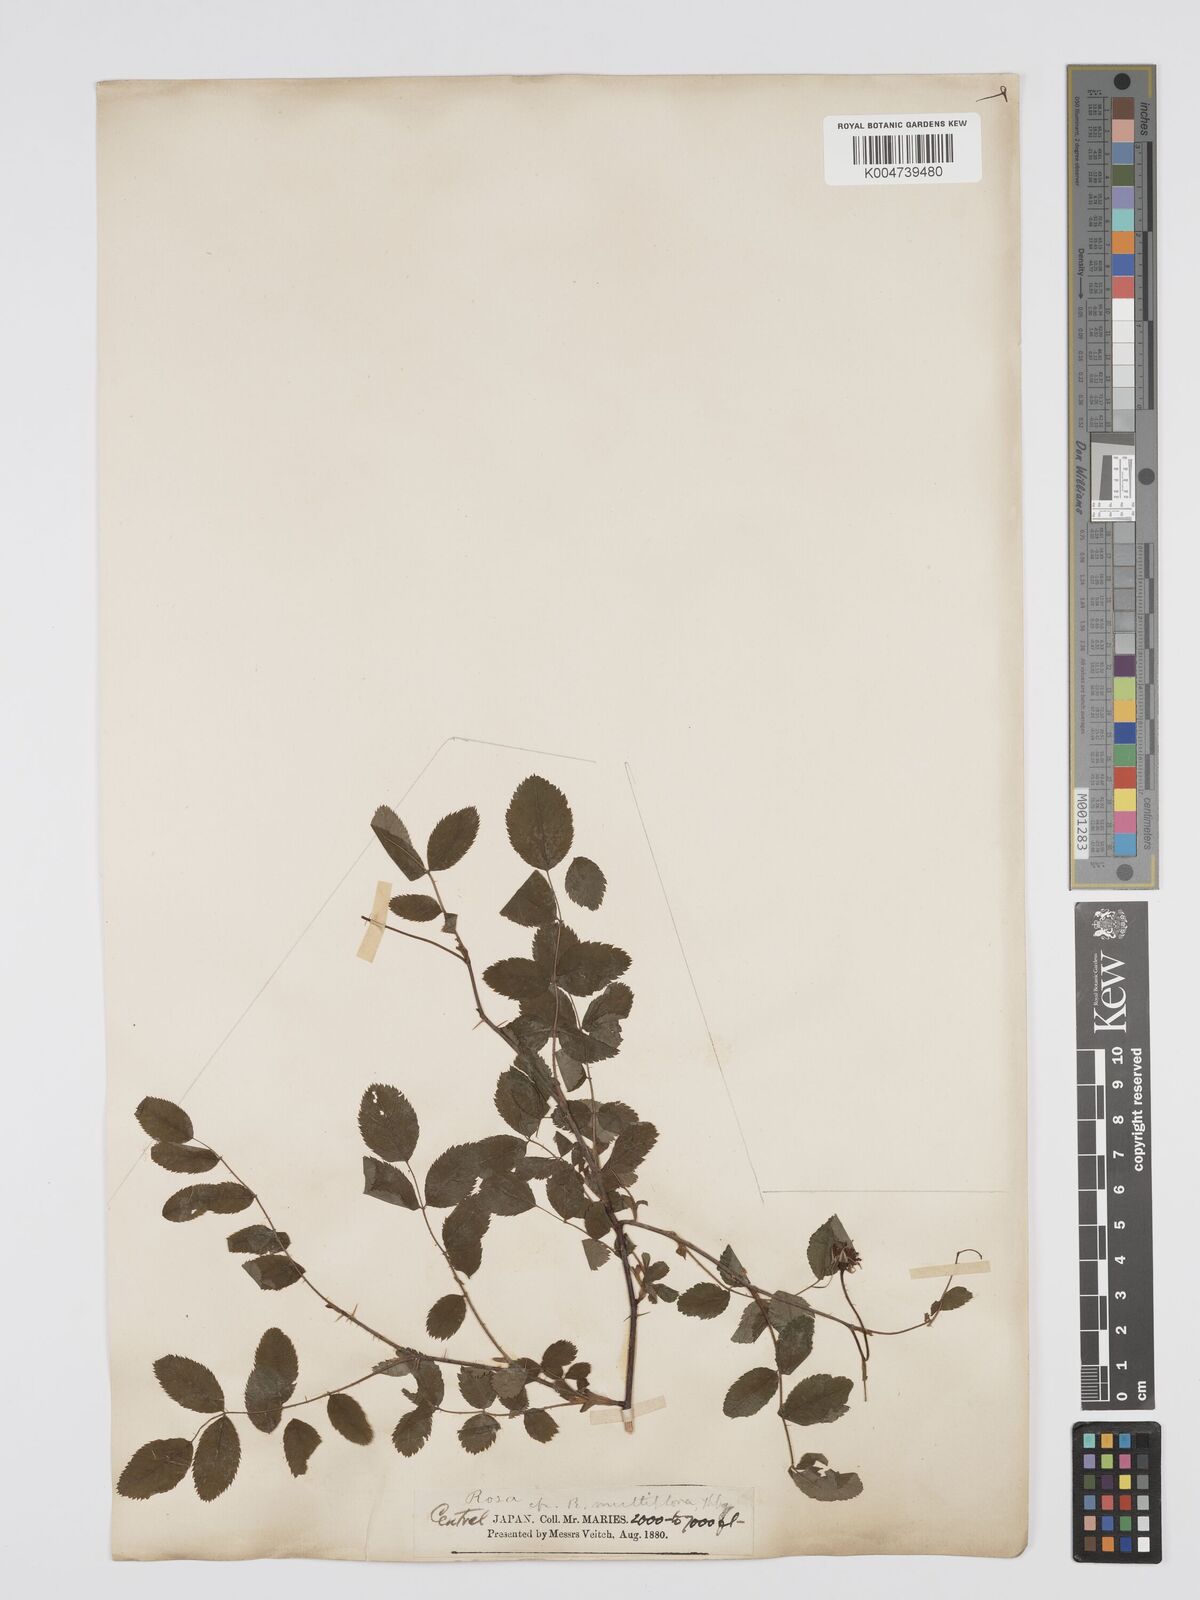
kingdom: Plantae
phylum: Tracheophyta
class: Magnoliopsida
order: Rosales
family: Rosaceae
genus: Rosa
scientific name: Rosa
